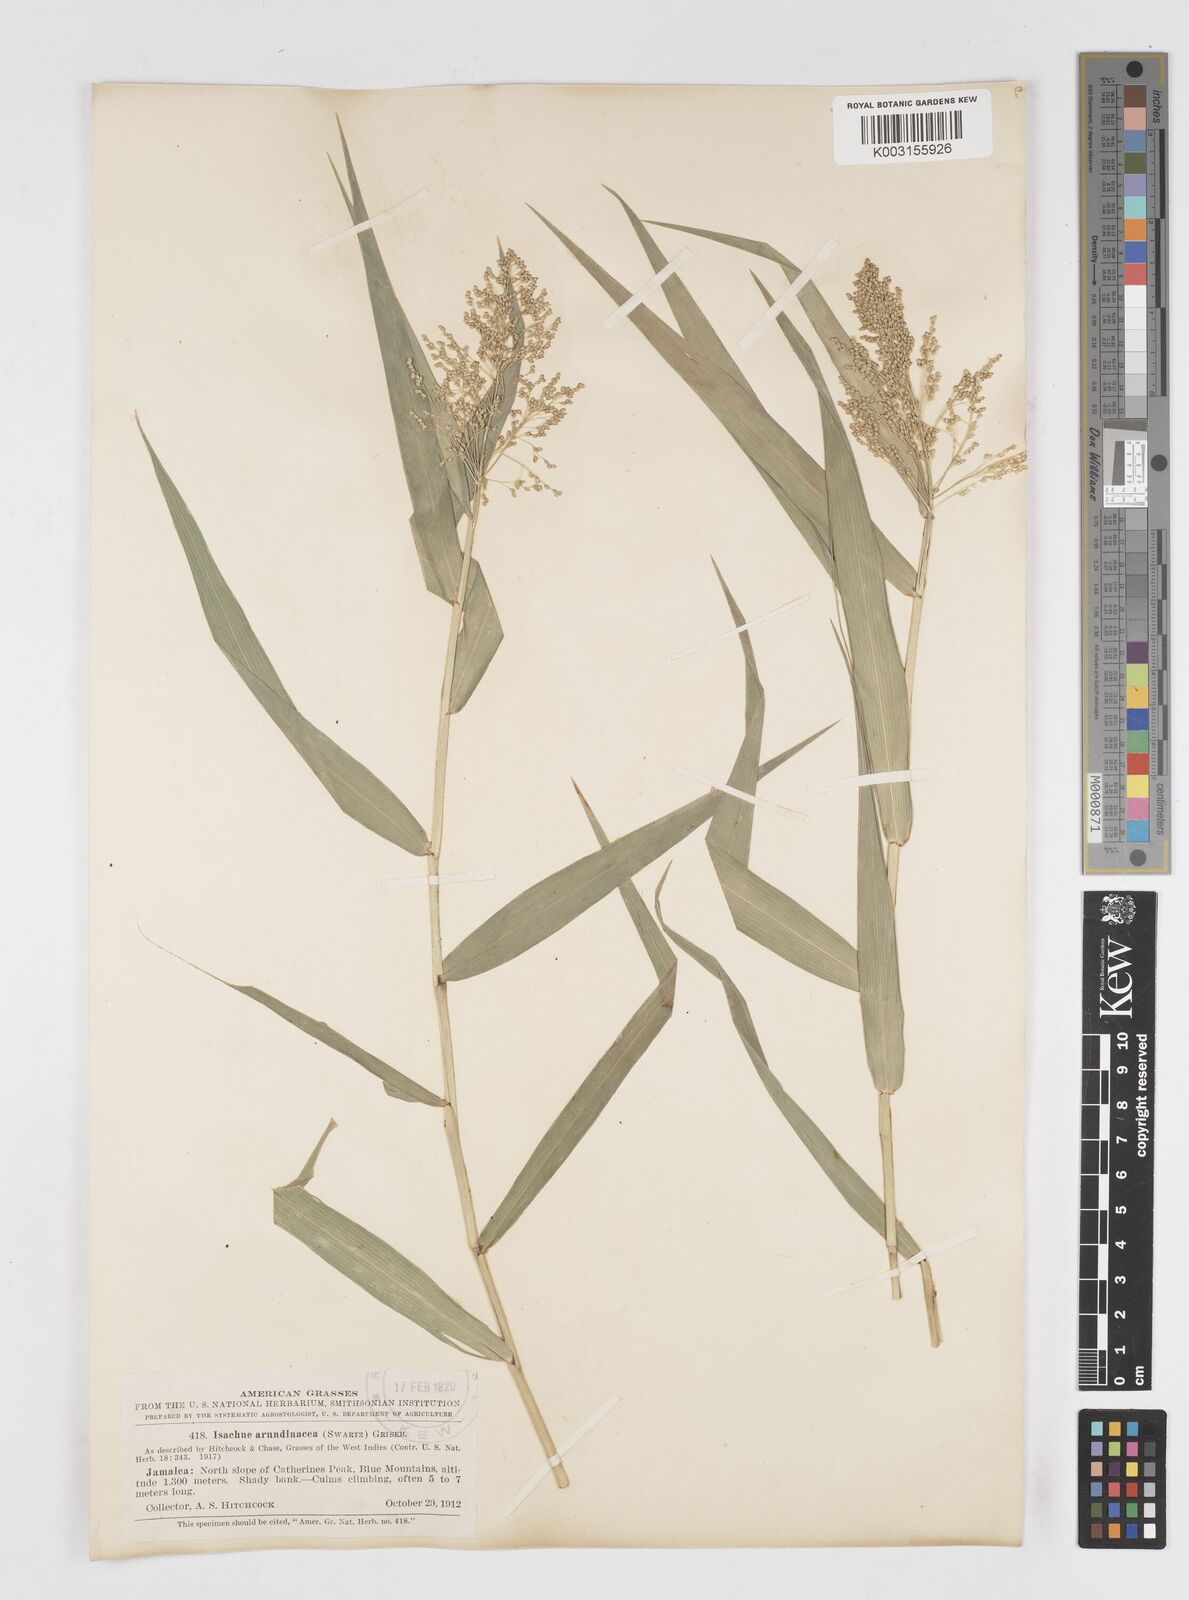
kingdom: Plantae
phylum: Tracheophyta
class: Liliopsida
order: Poales
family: Poaceae
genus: Isachne
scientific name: Isachne arundinacea
